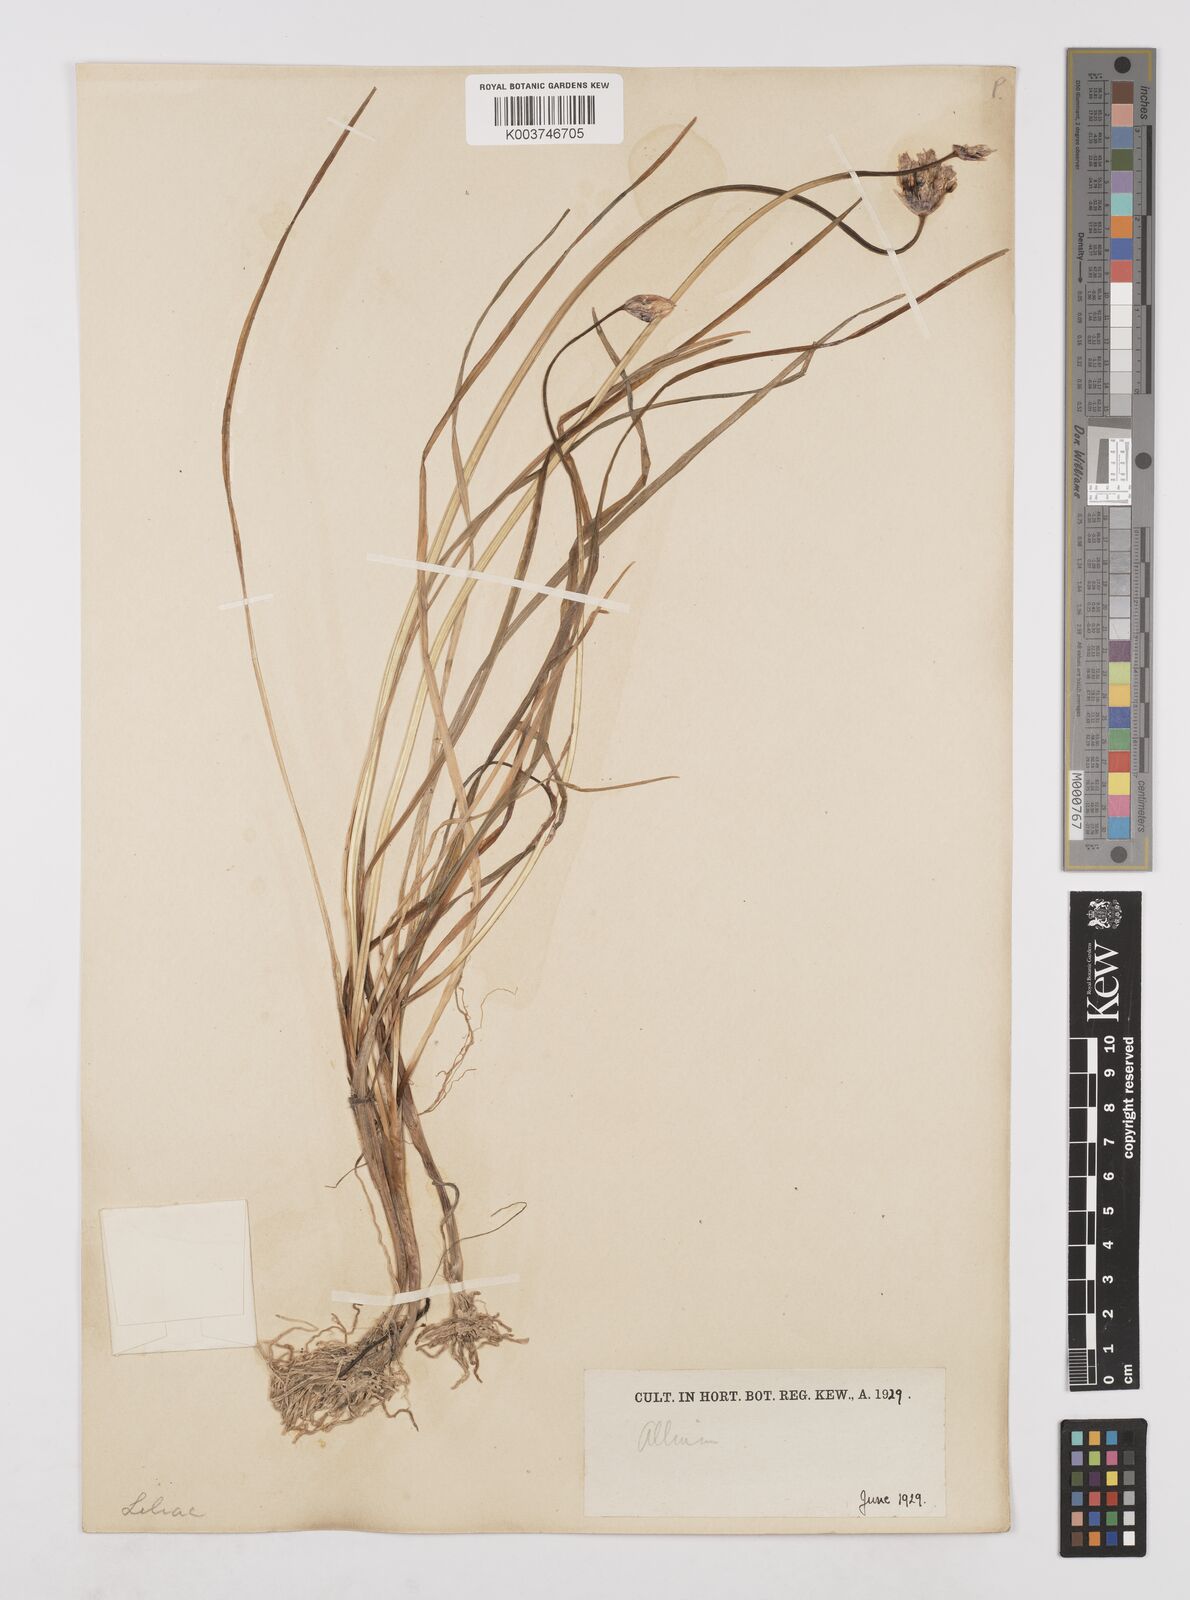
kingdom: Plantae
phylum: Tracheophyta
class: Liliopsida
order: Asparagales
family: Amaryllidaceae
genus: Allium
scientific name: Allium farreri
